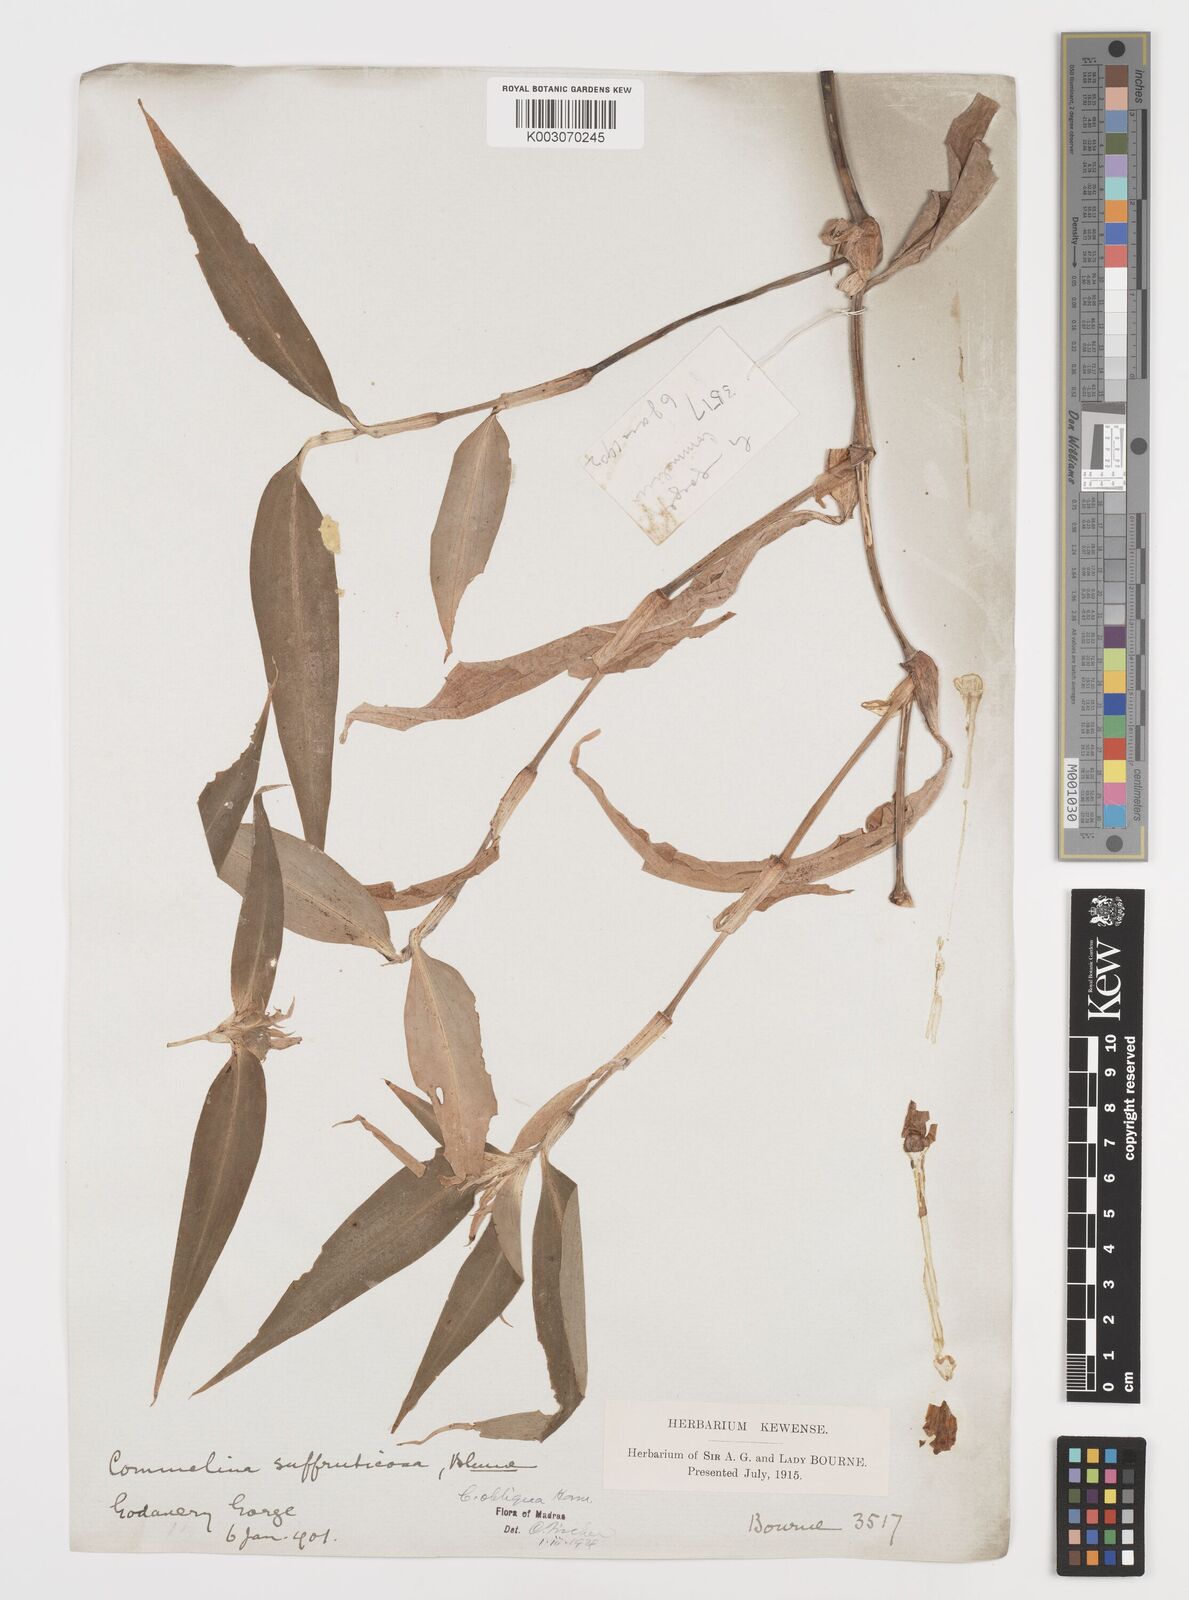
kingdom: Plantae
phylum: Tracheophyta
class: Liliopsida
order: Commelinales
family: Commelinaceae
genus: Commelina
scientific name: Commelina paludosa
